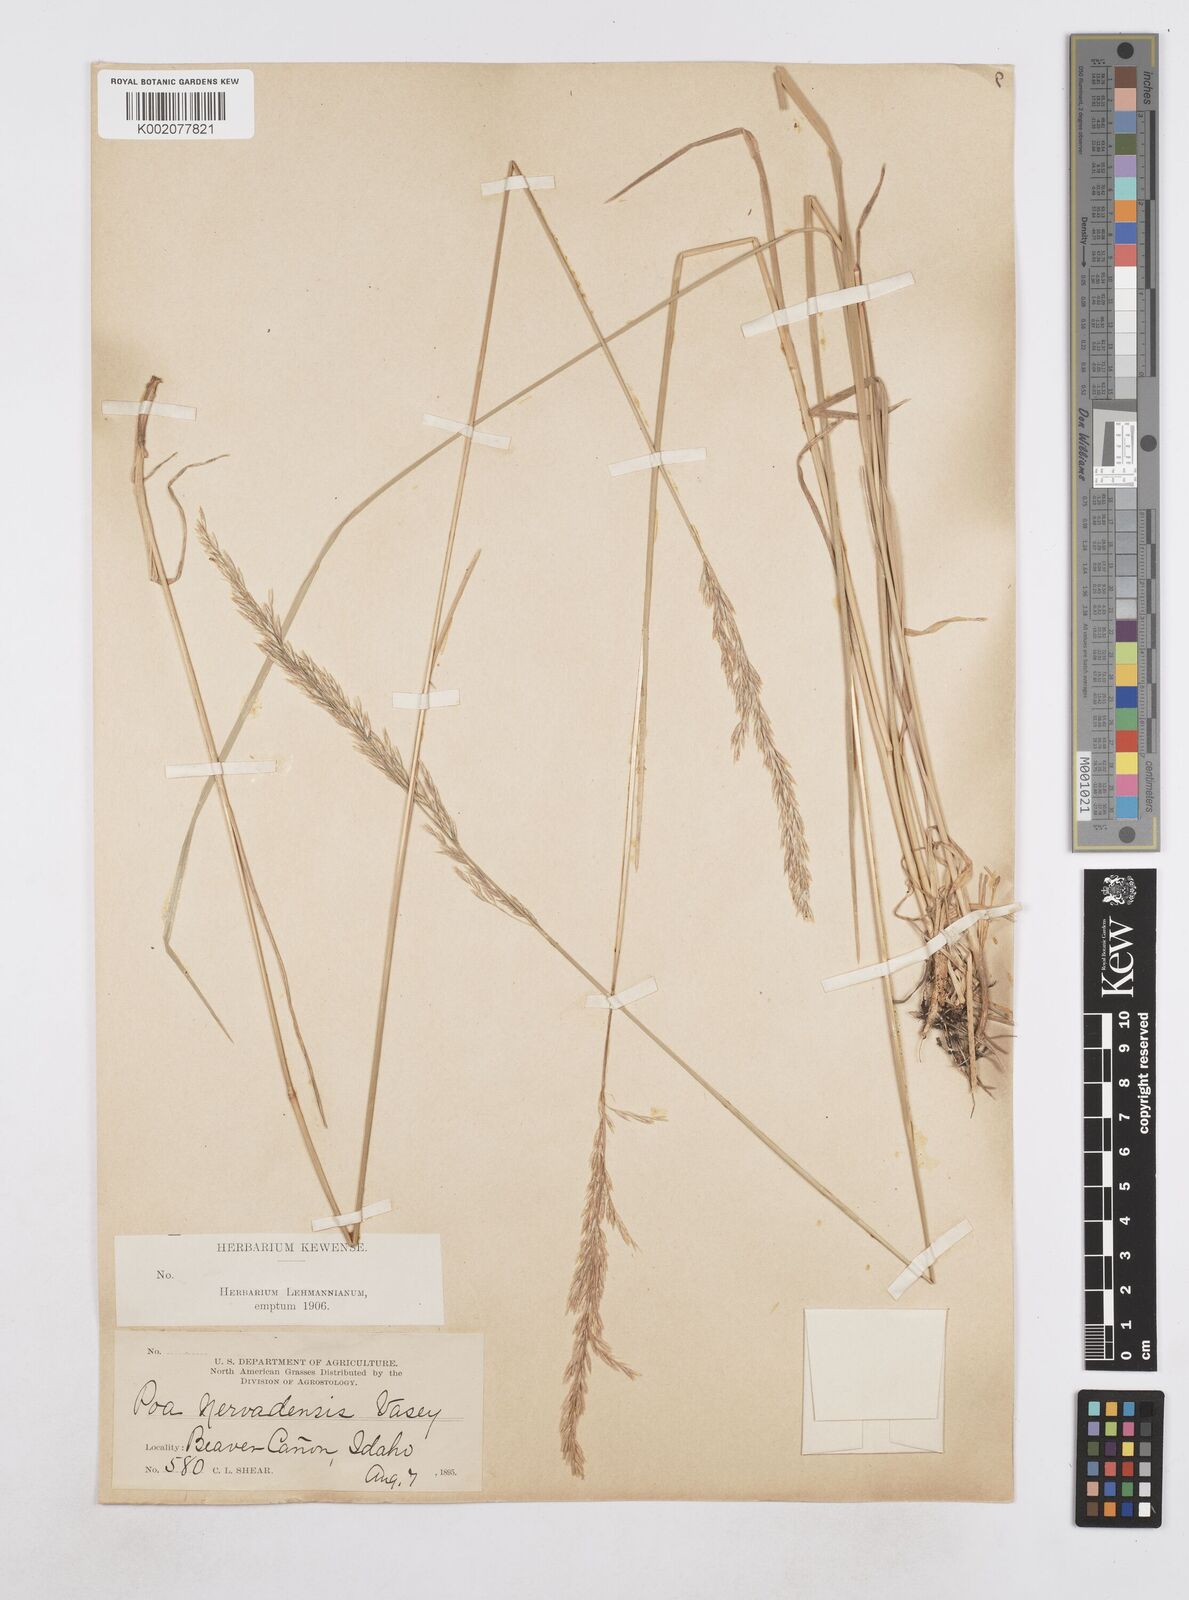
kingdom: Plantae
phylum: Tracheophyta
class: Liliopsida
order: Poales
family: Poaceae
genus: Poa
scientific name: Poa secunda
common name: Sandberg bluegrass
